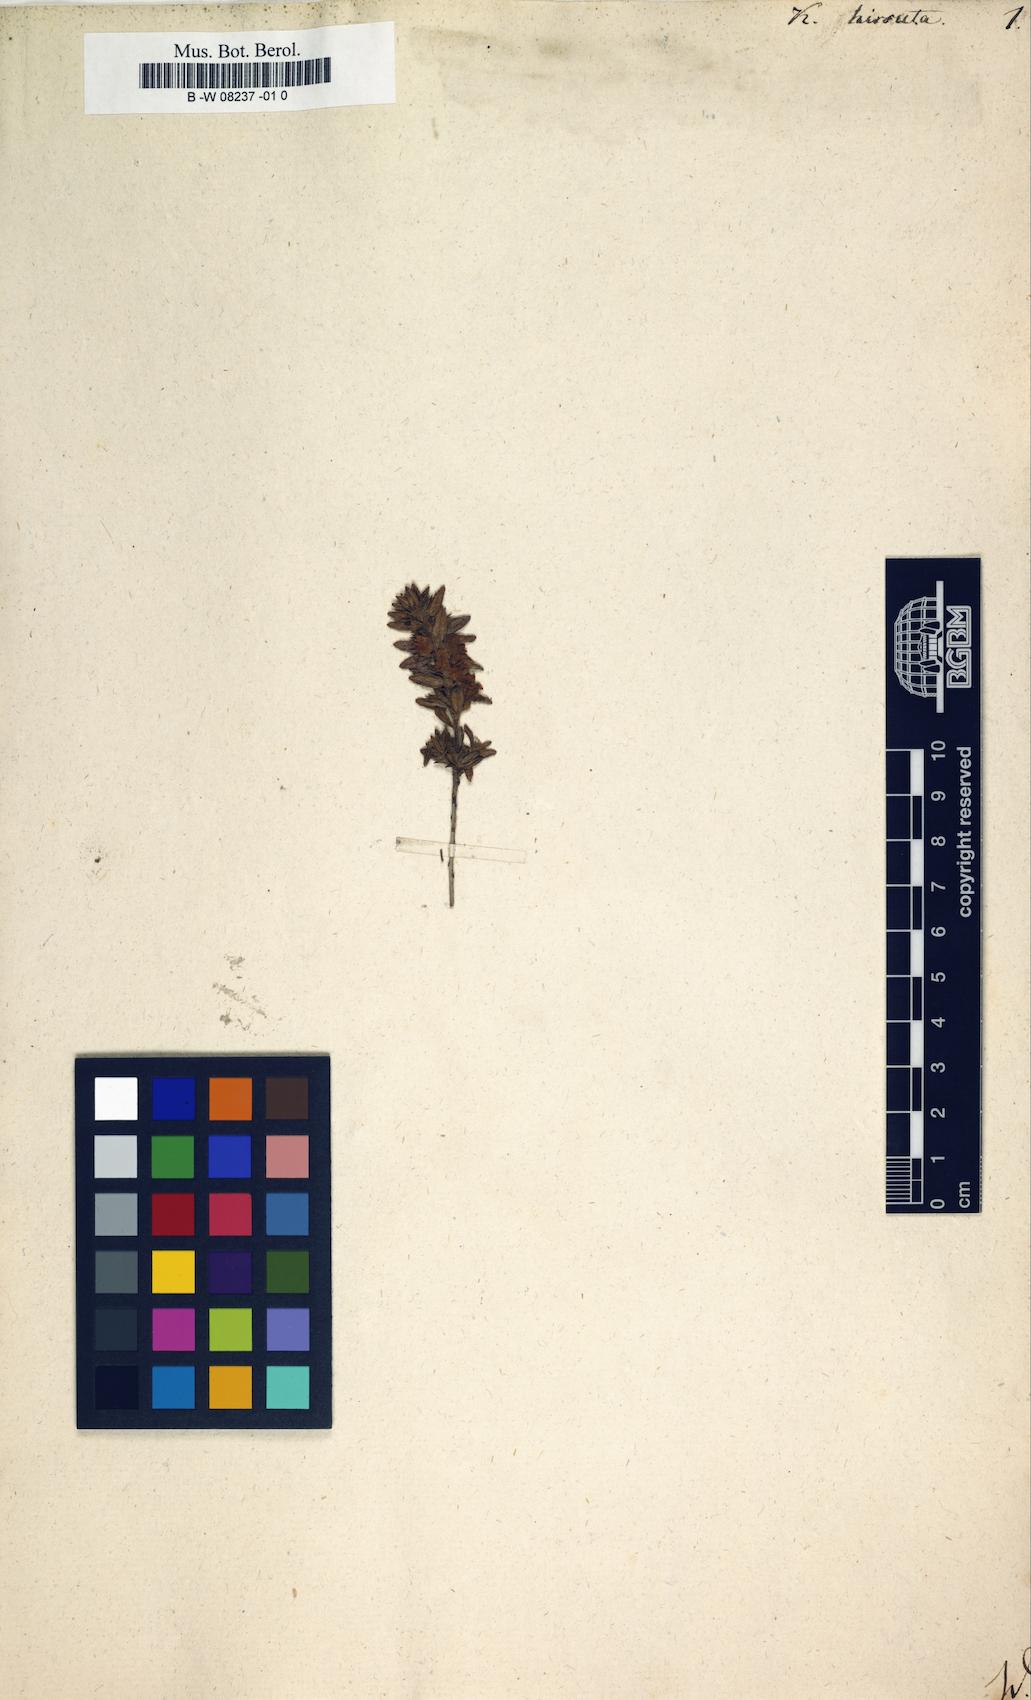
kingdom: Plantae
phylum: Tracheophyta
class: Magnoliopsida
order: Ericales
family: Ericaceae
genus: Kalmia
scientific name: Kalmia hirsuta
